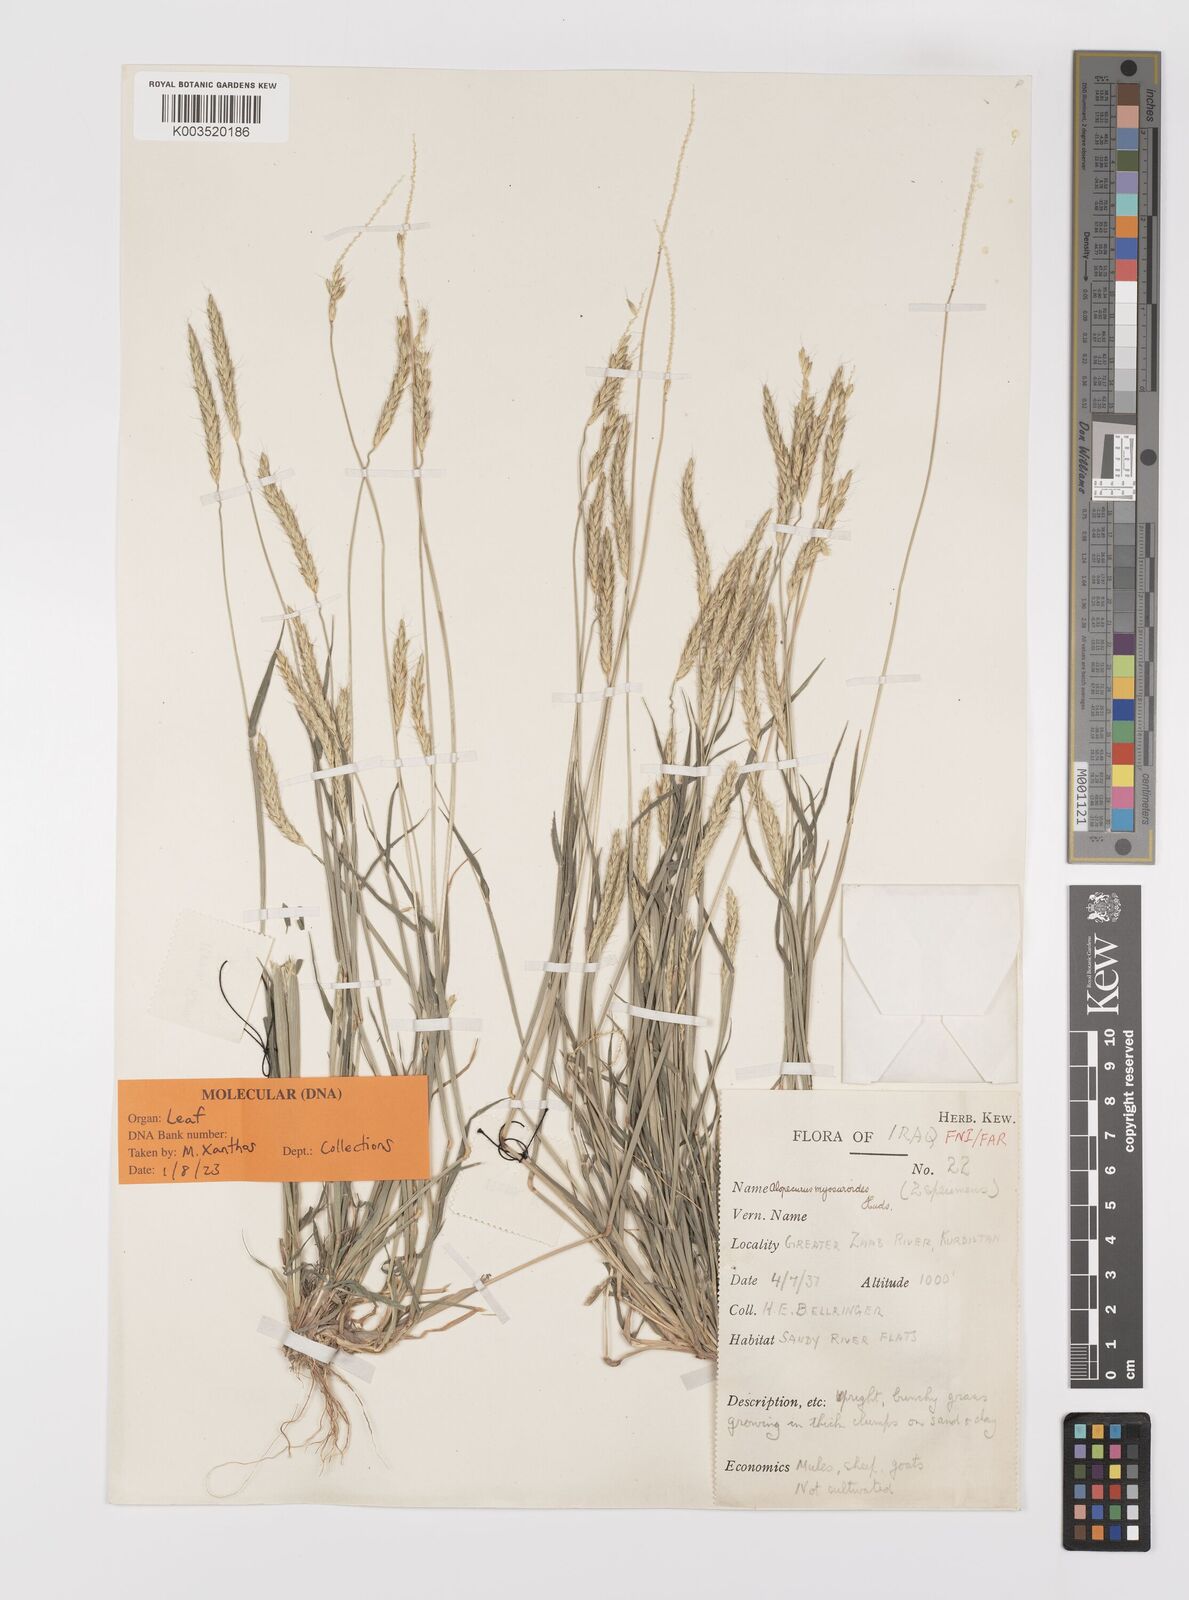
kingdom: Plantae
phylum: Tracheophyta
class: Liliopsida
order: Poales
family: Poaceae
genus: Alopecurus
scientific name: Alopecurus myosuroides
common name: Black-grass
